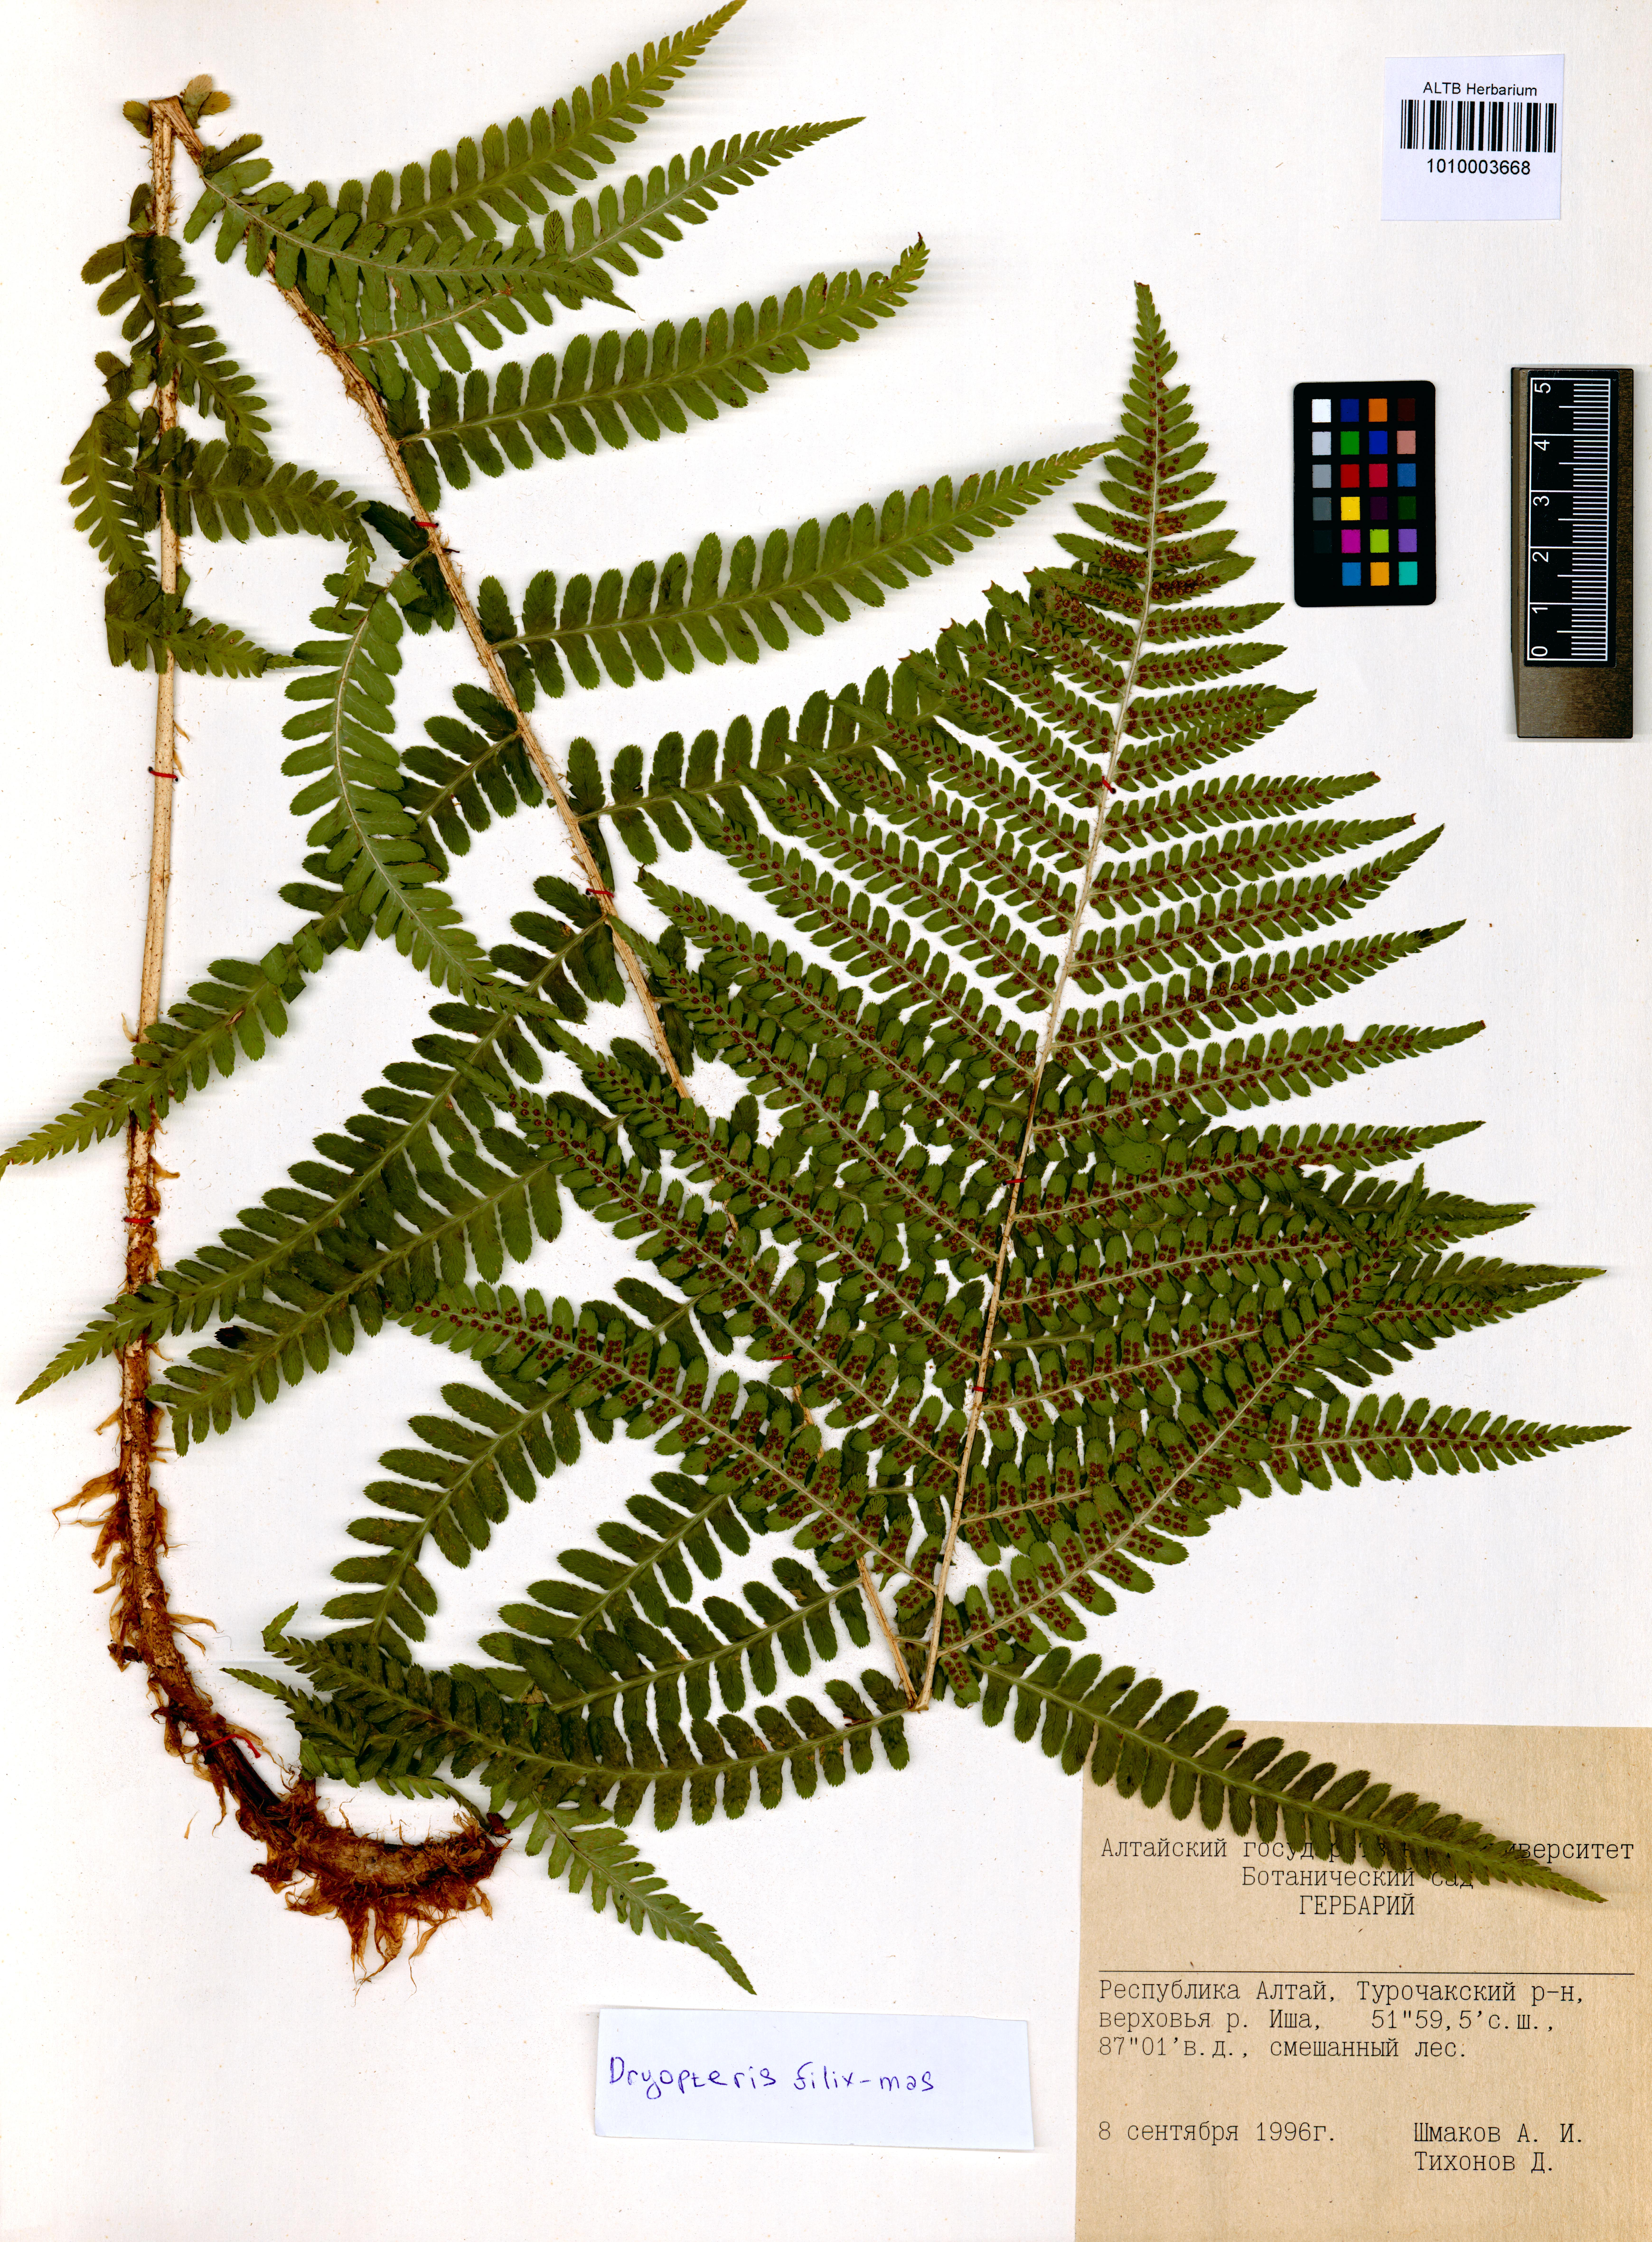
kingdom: Plantae
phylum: Tracheophyta
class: Polypodiopsida
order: Polypodiales
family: Dryopteridaceae
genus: Dryopteris
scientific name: Dryopteris filix-mas
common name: Male fern
